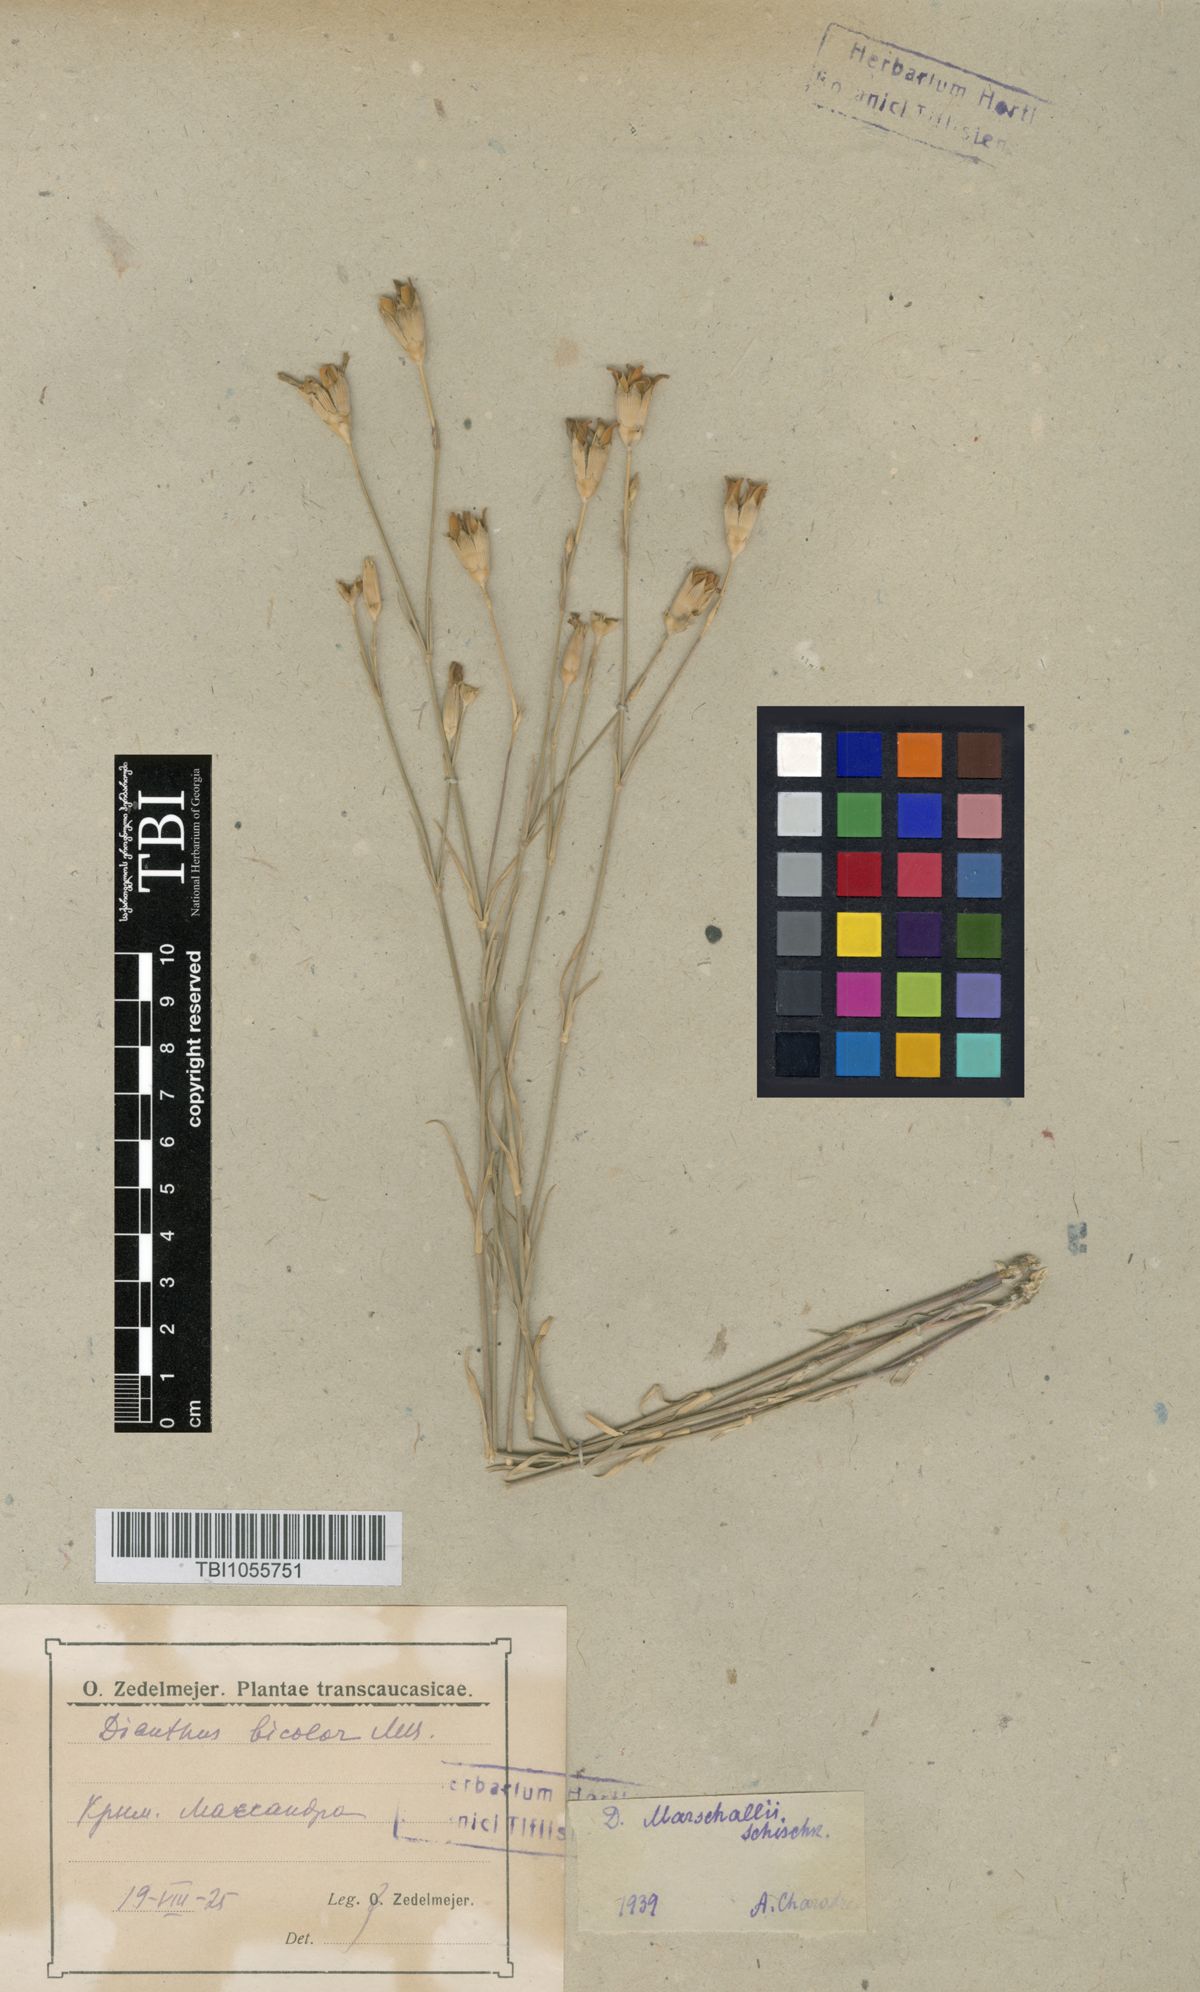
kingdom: Plantae
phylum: Tracheophyta
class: Magnoliopsida
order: Caryophyllales
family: Caryophyllaceae
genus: Dianthus
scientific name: Dianthus marschallii
